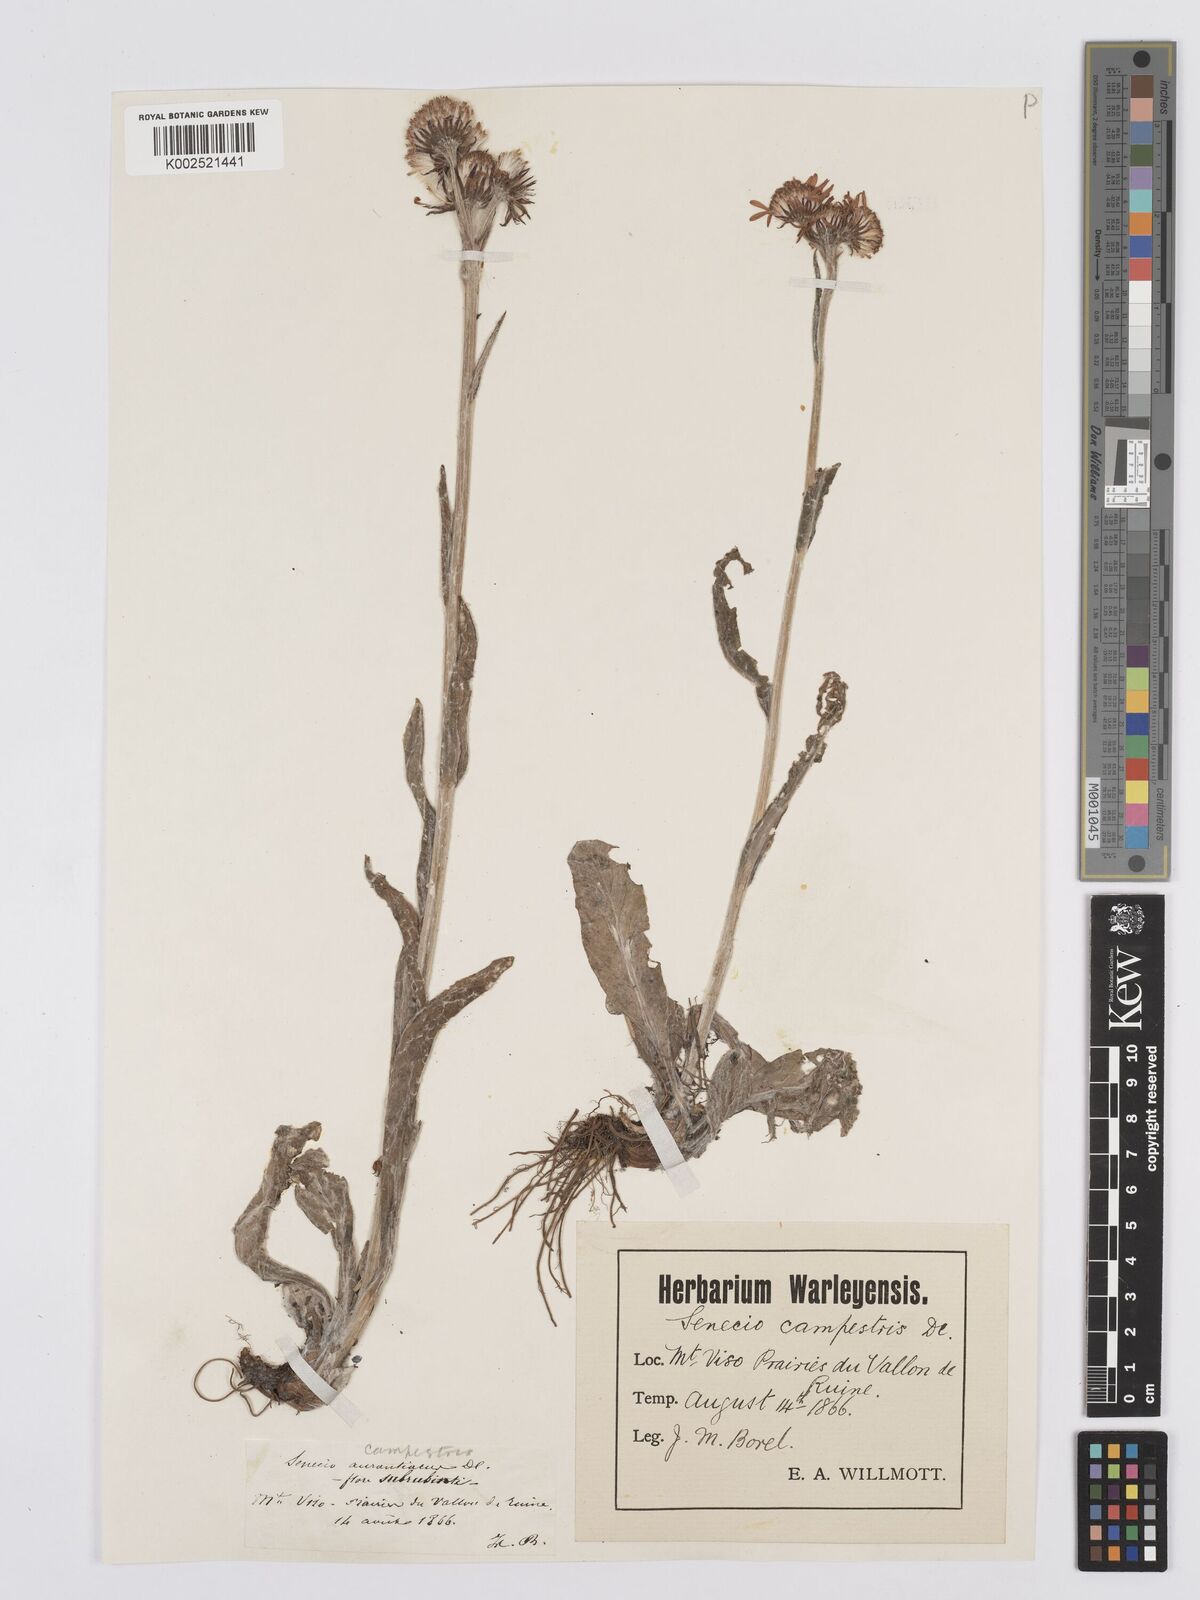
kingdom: Plantae
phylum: Tracheophyta
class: Magnoliopsida
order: Asterales
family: Asteraceae
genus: Tephroseris
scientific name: Tephroseris integrifolia
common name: Field fleawort
